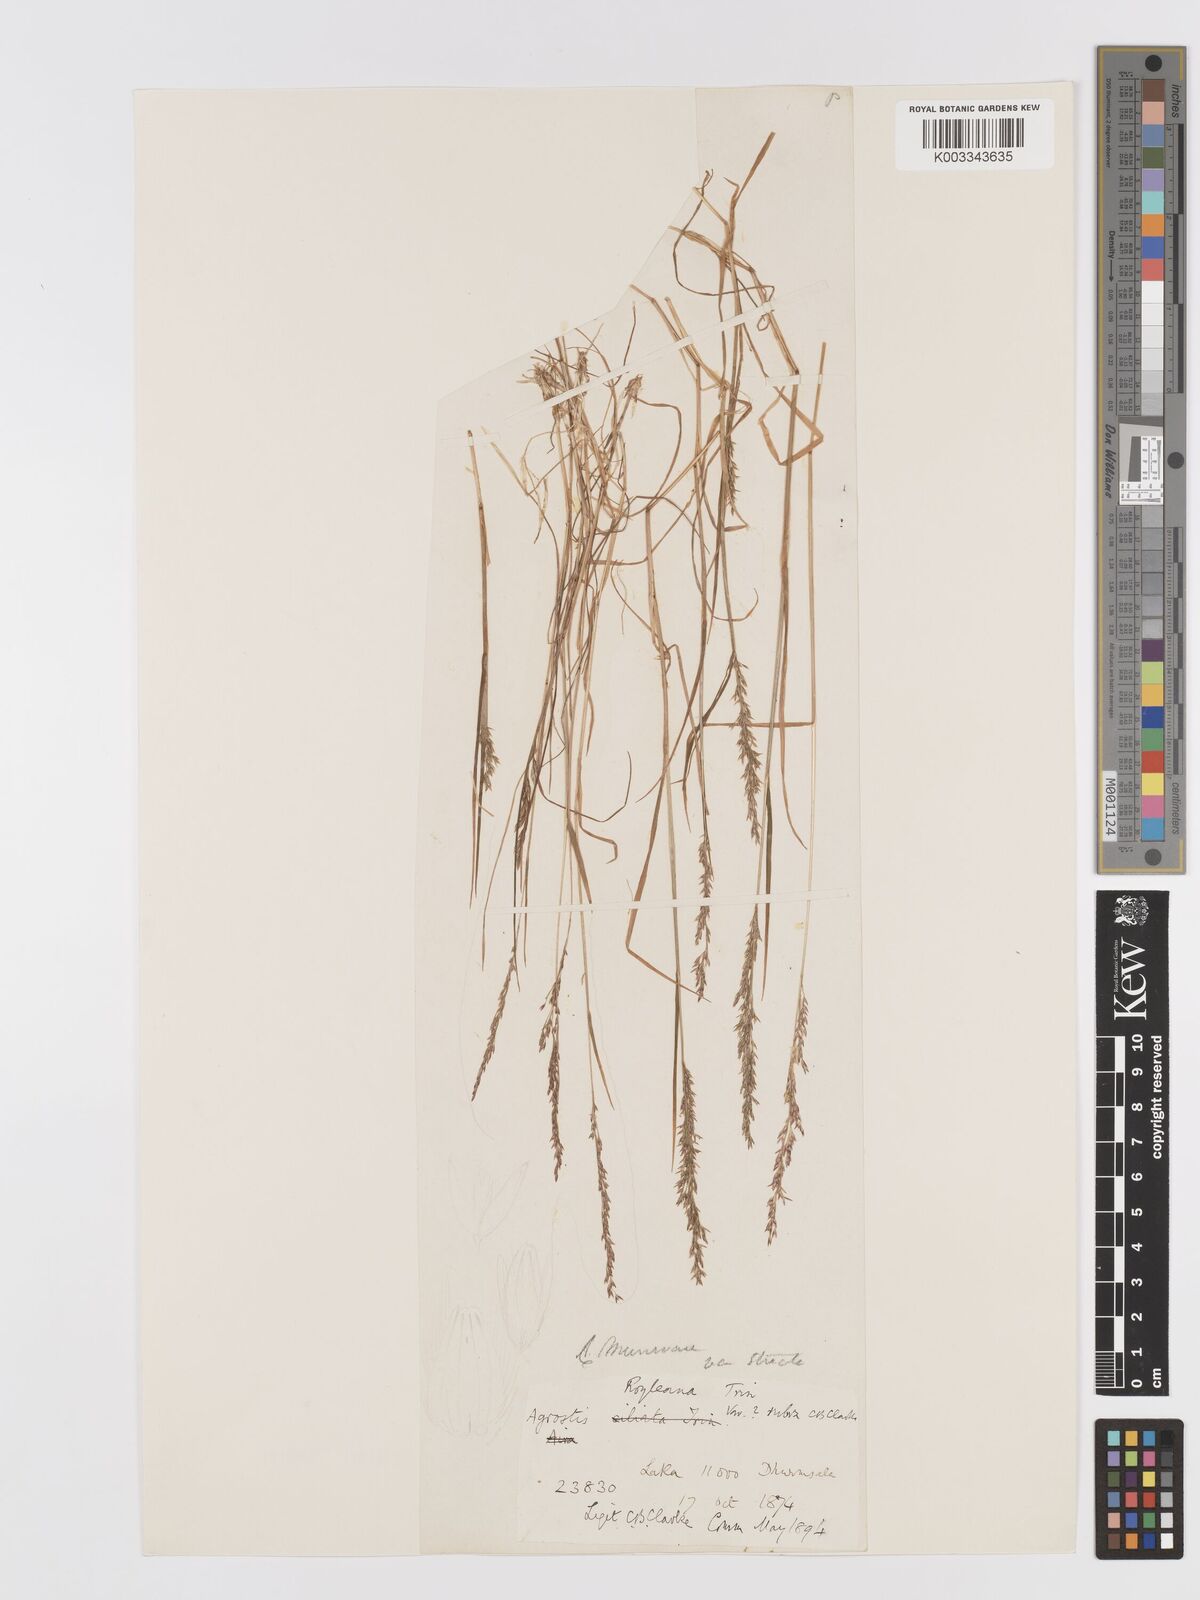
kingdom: Plantae
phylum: Tracheophyta
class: Liliopsida
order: Poales
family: Poaceae
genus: Agrostis
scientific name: Agrostis munroana
